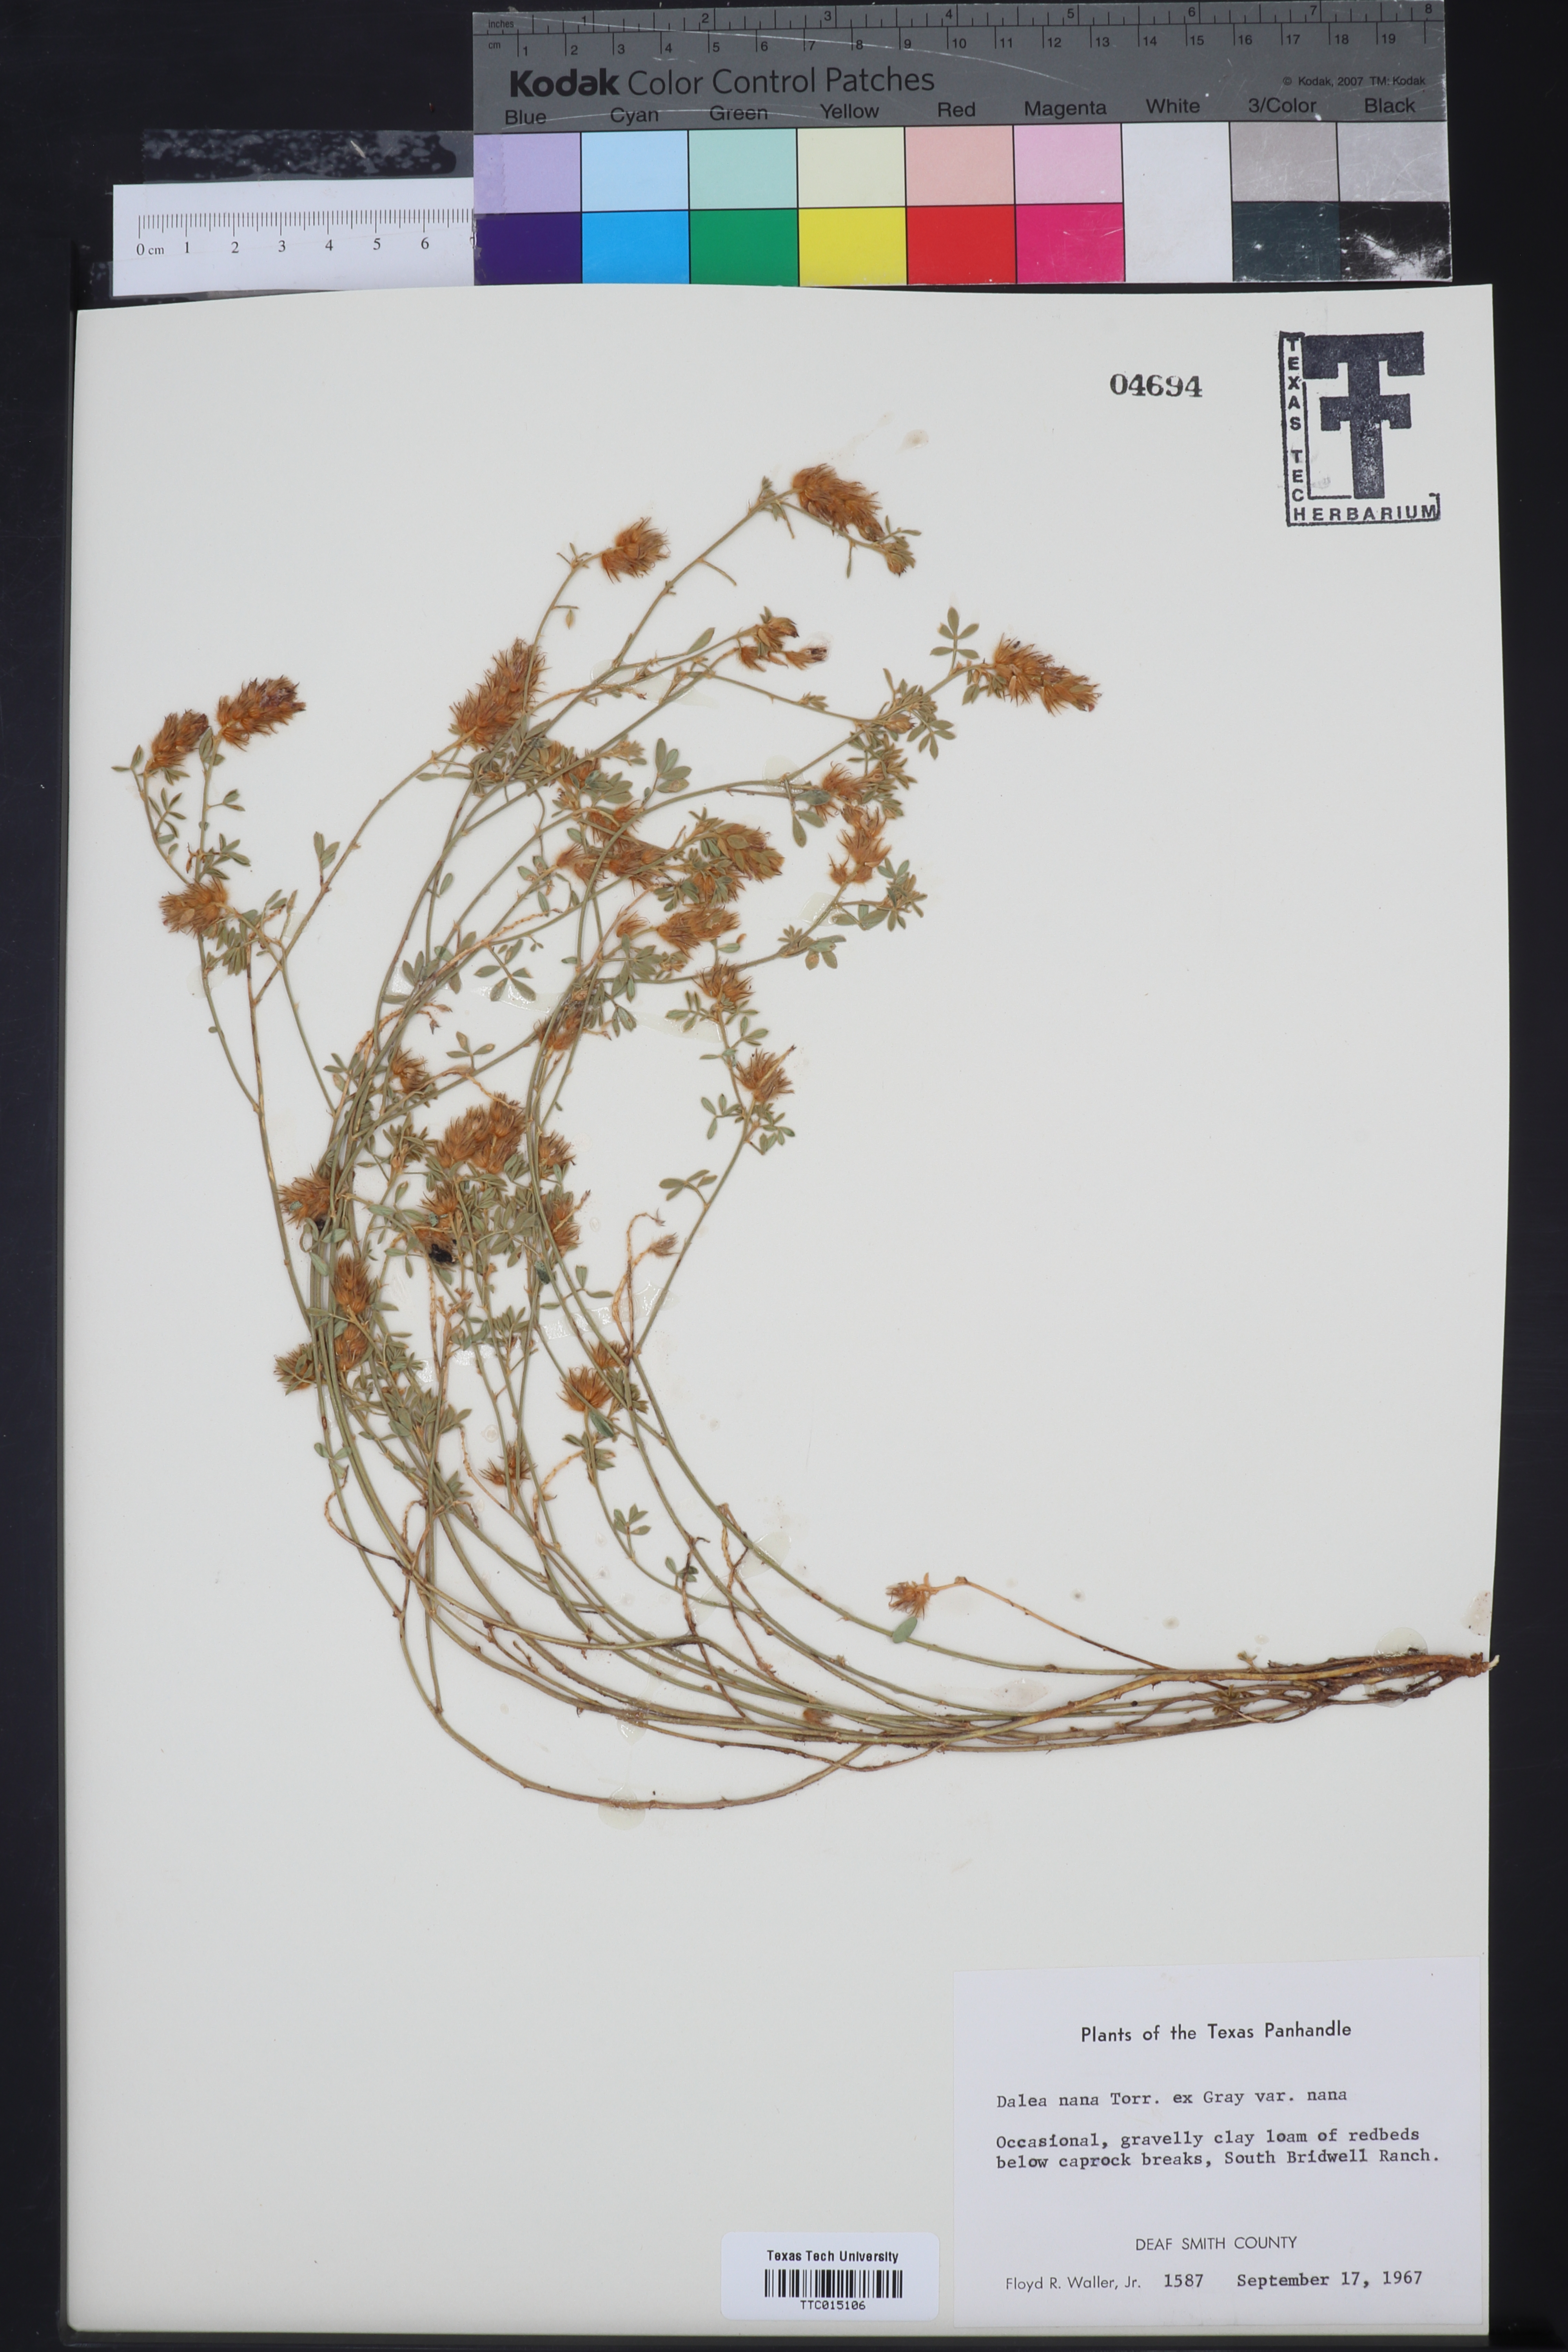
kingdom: Plantae
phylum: Tracheophyta
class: Magnoliopsida
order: Fabales
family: Fabaceae
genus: Dalea
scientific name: Dalea nana
